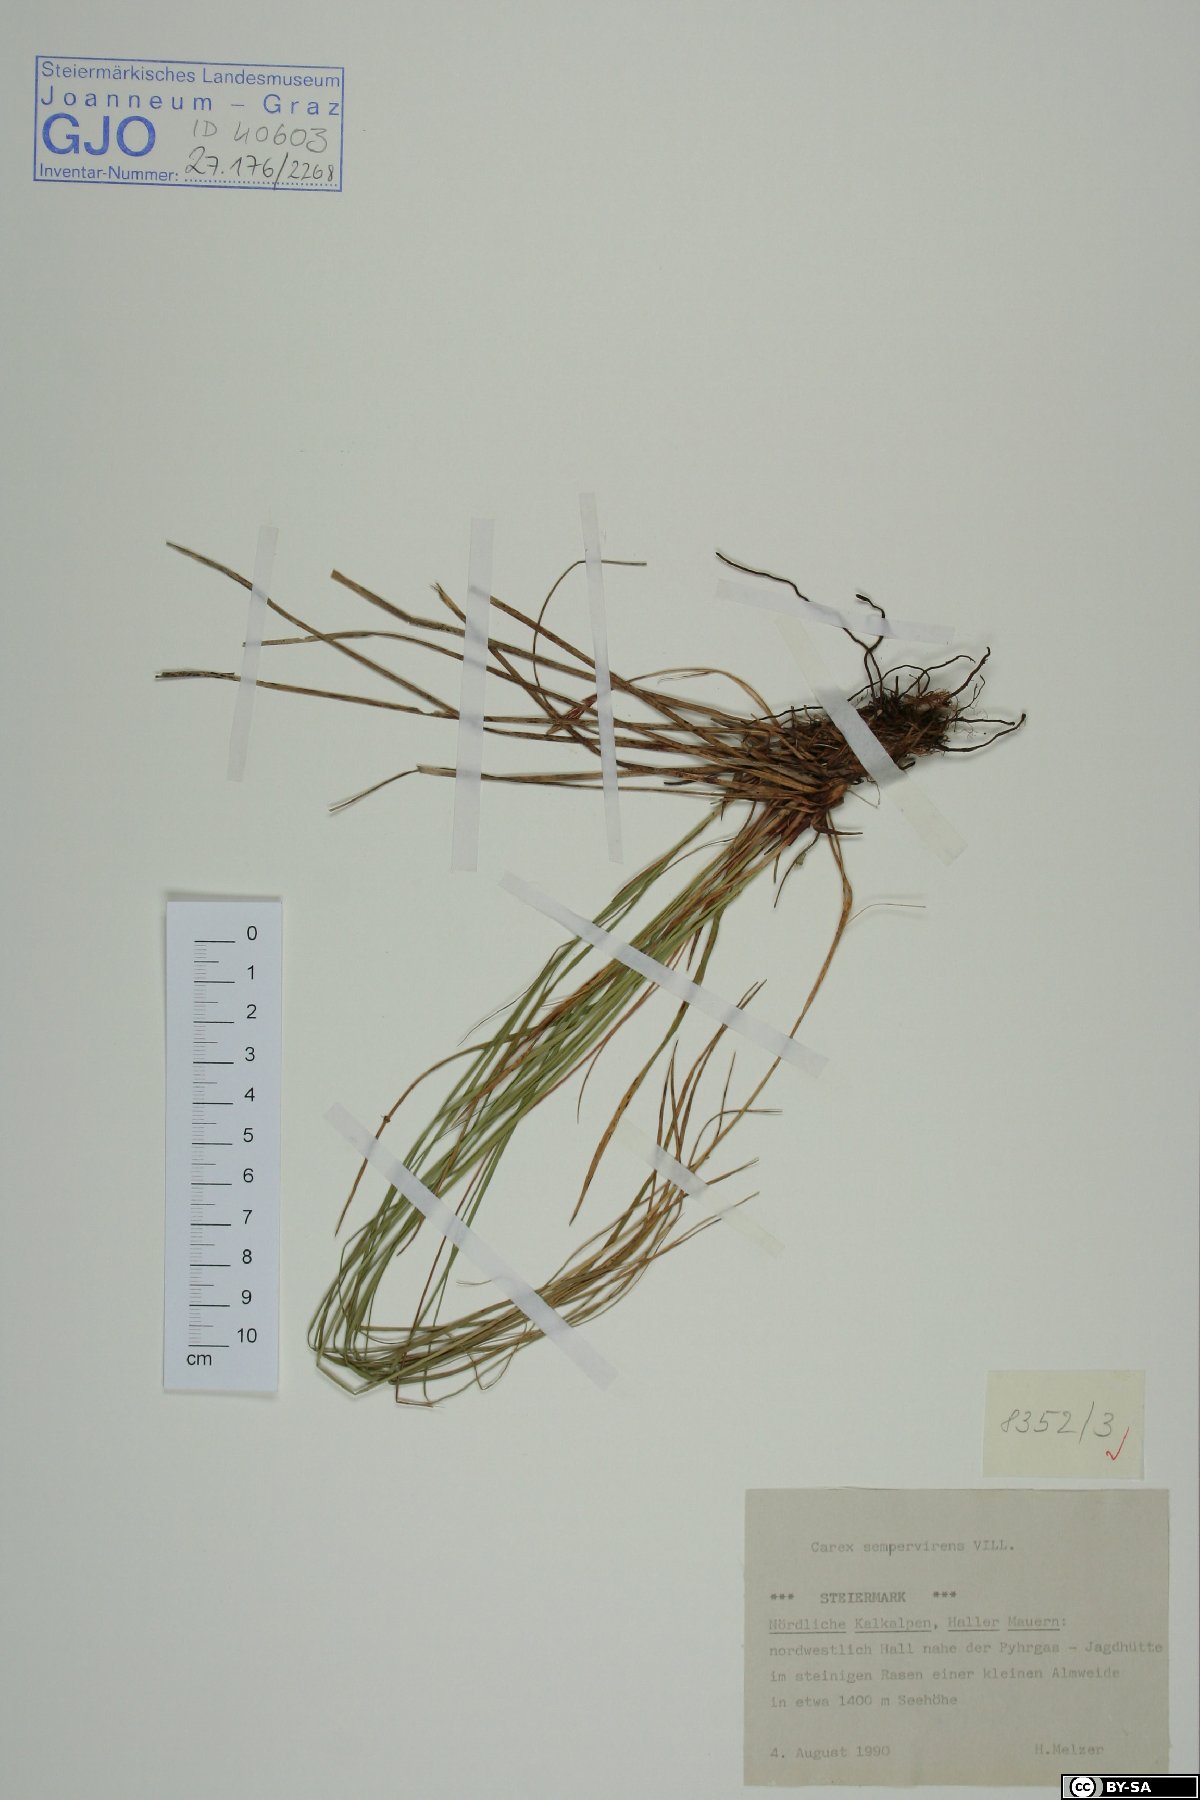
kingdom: Plantae
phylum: Tracheophyta
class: Liliopsida
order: Poales
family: Cyperaceae
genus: Carex
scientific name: Carex sempervirens
